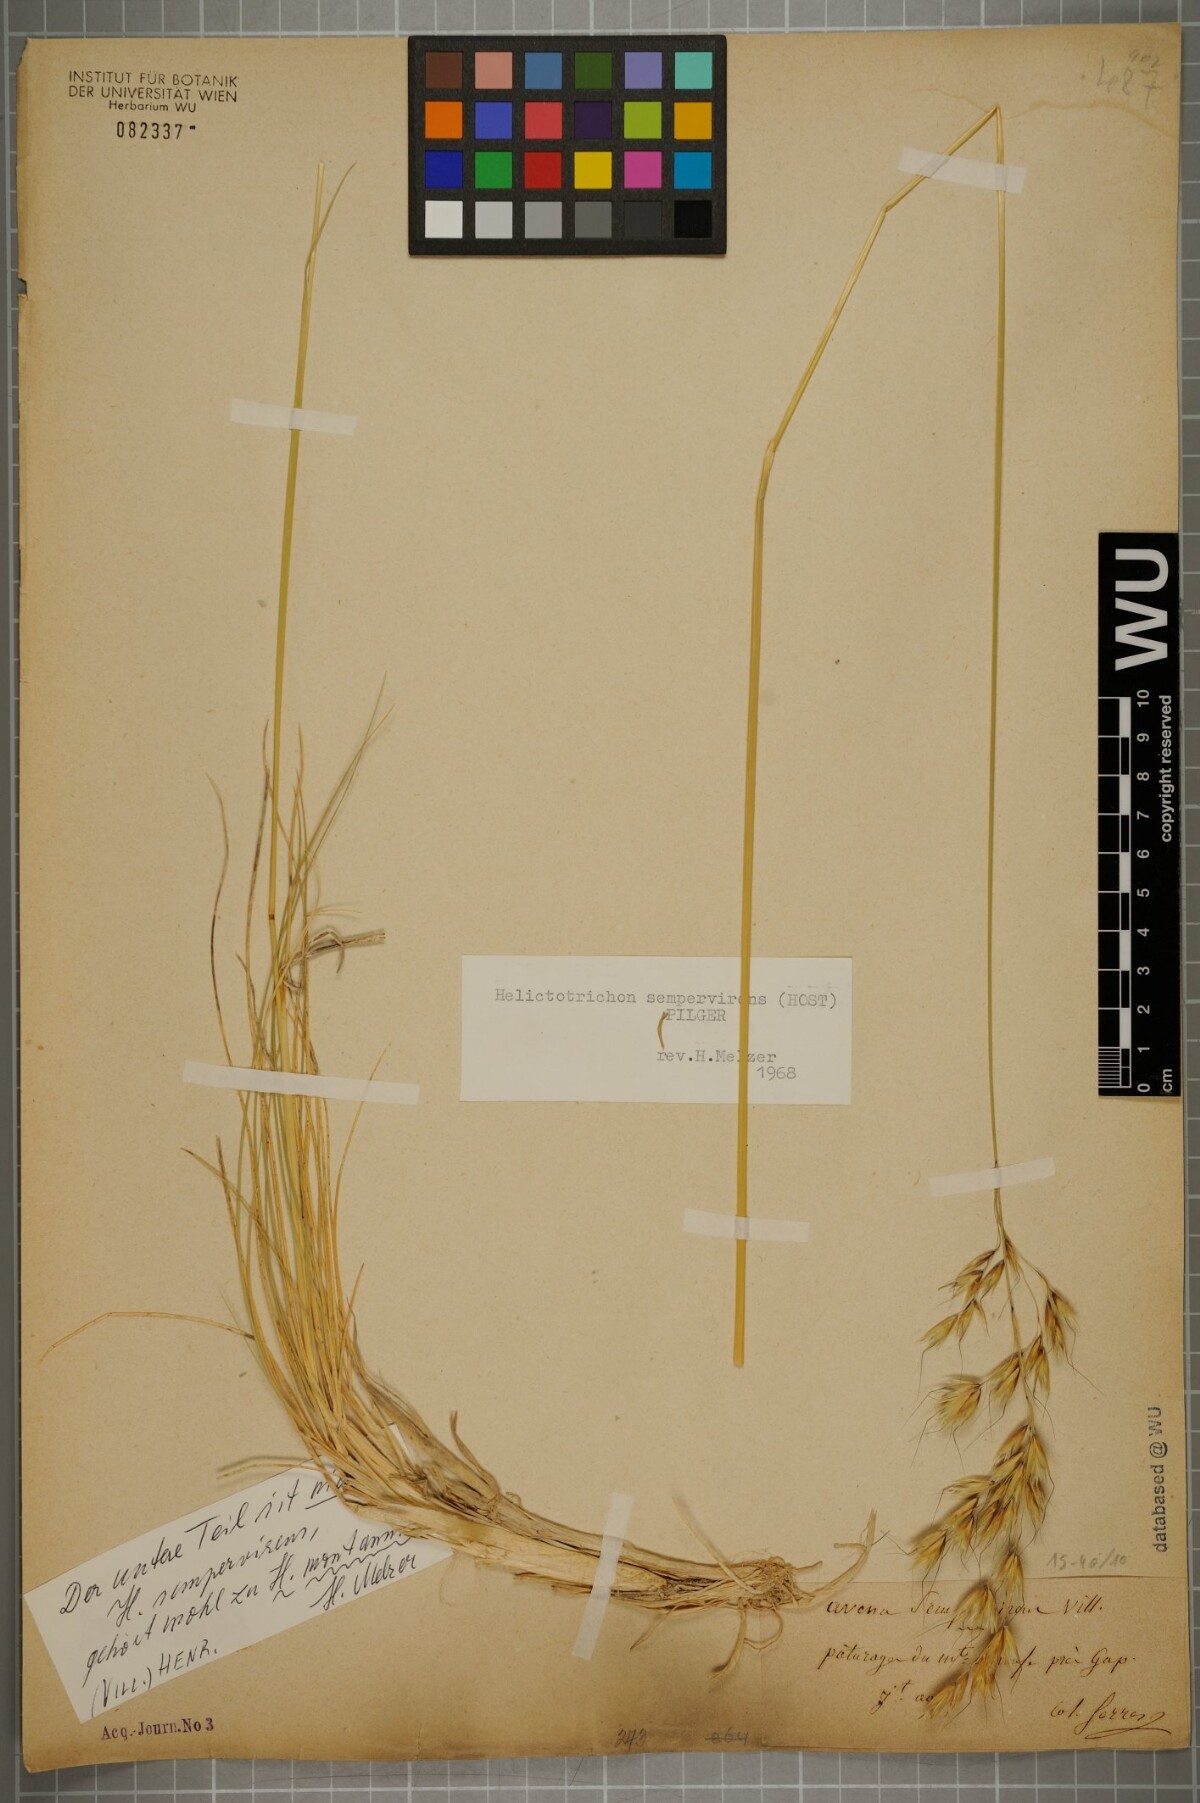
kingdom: Plantae
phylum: Tracheophyta
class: Liliopsida
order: Poales
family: Poaceae
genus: Helictotrichon
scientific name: Helictotrichon sempervirens
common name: Blue oat-grass
